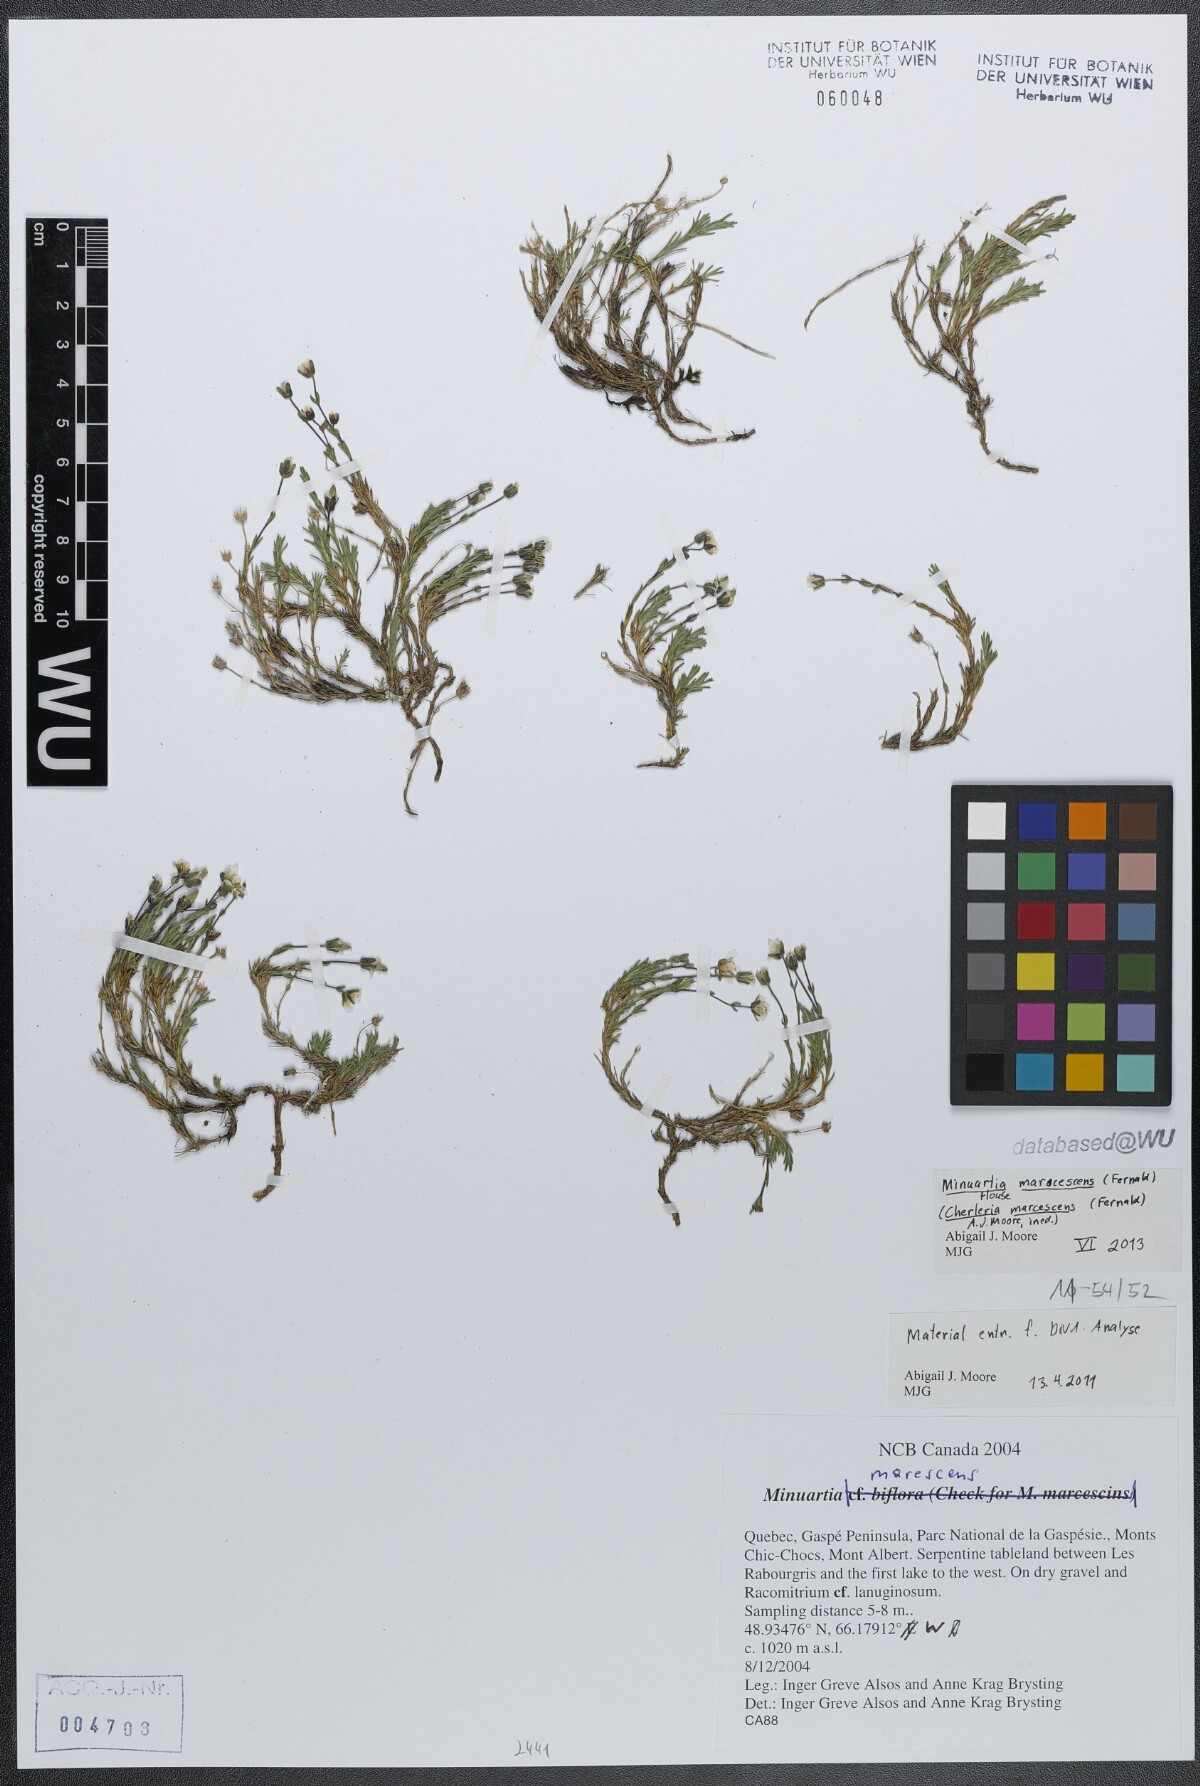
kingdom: Plantae
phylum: Tracheophyta
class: Magnoliopsida
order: Caryophyllales
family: Caryophyllaceae
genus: Cherleria
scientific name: Cherleria marcescens
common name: Dry-leaved sandwort
